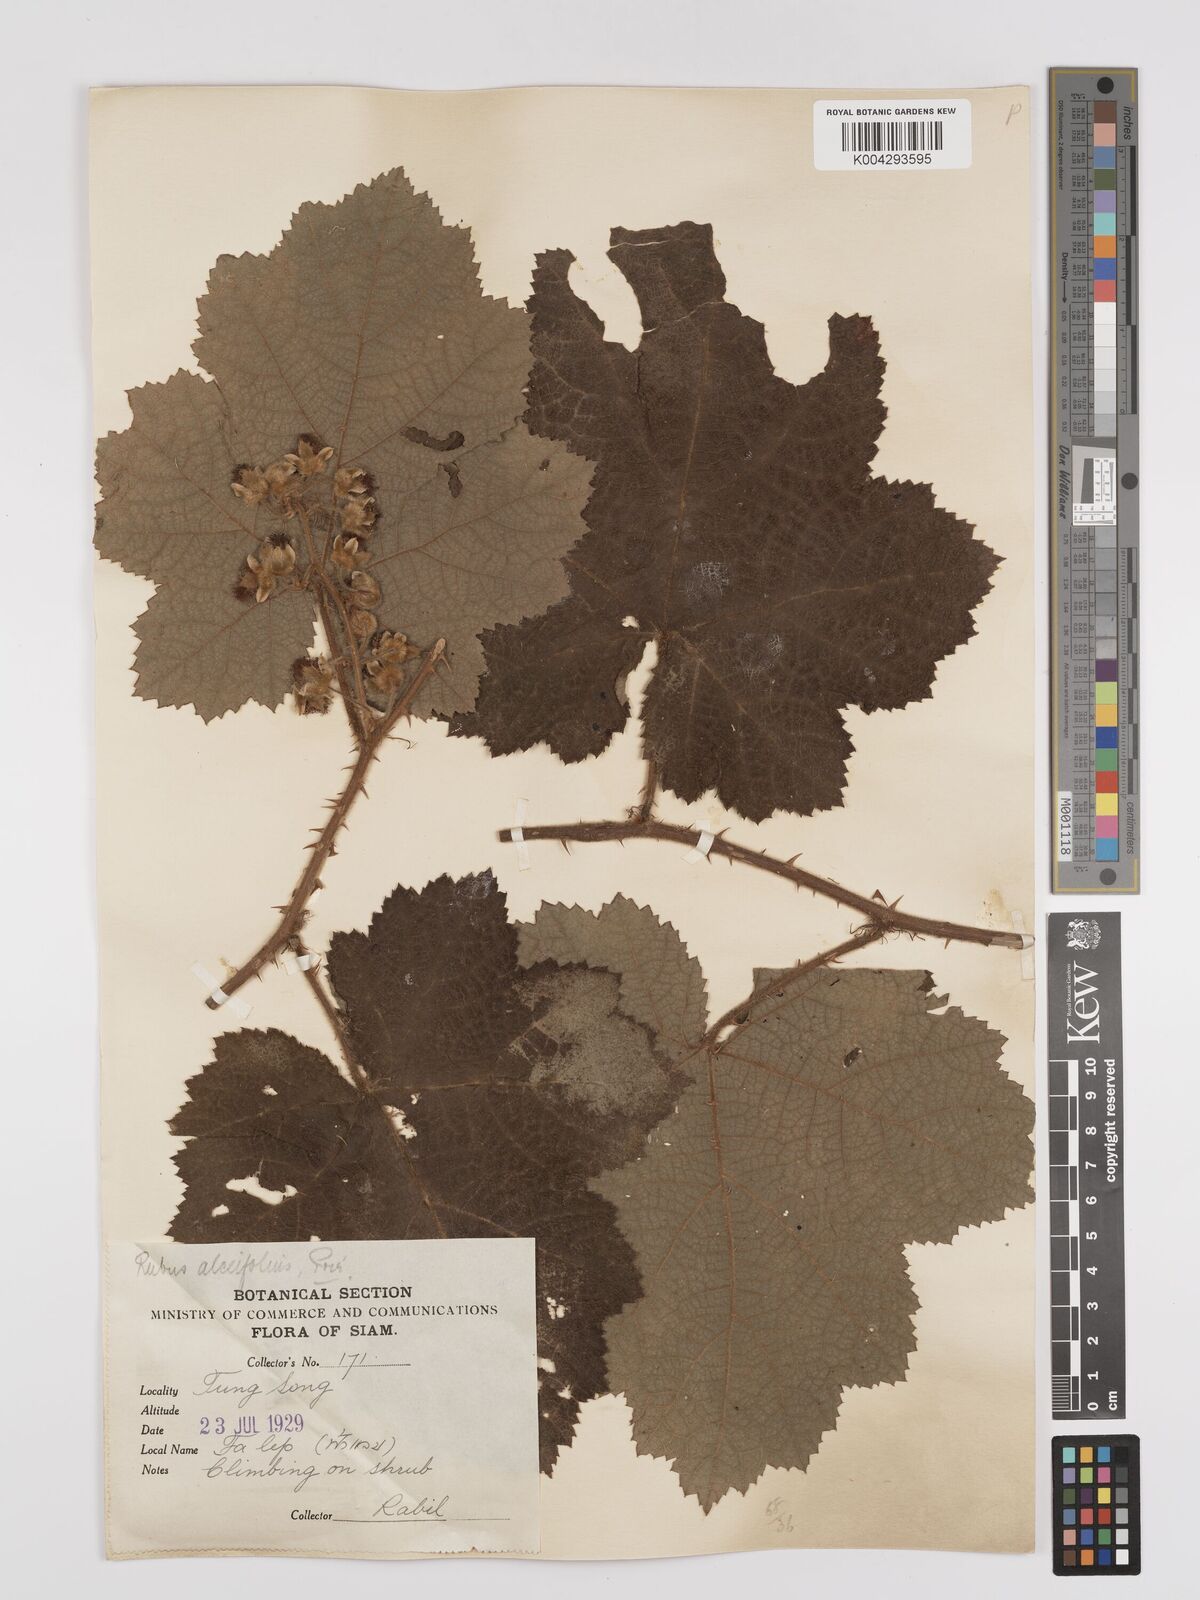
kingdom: Plantae
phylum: Tracheophyta
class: Magnoliopsida
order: Rosales
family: Rosaceae
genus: Rubus
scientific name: Rubus alceifolius
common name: Giant bramble
